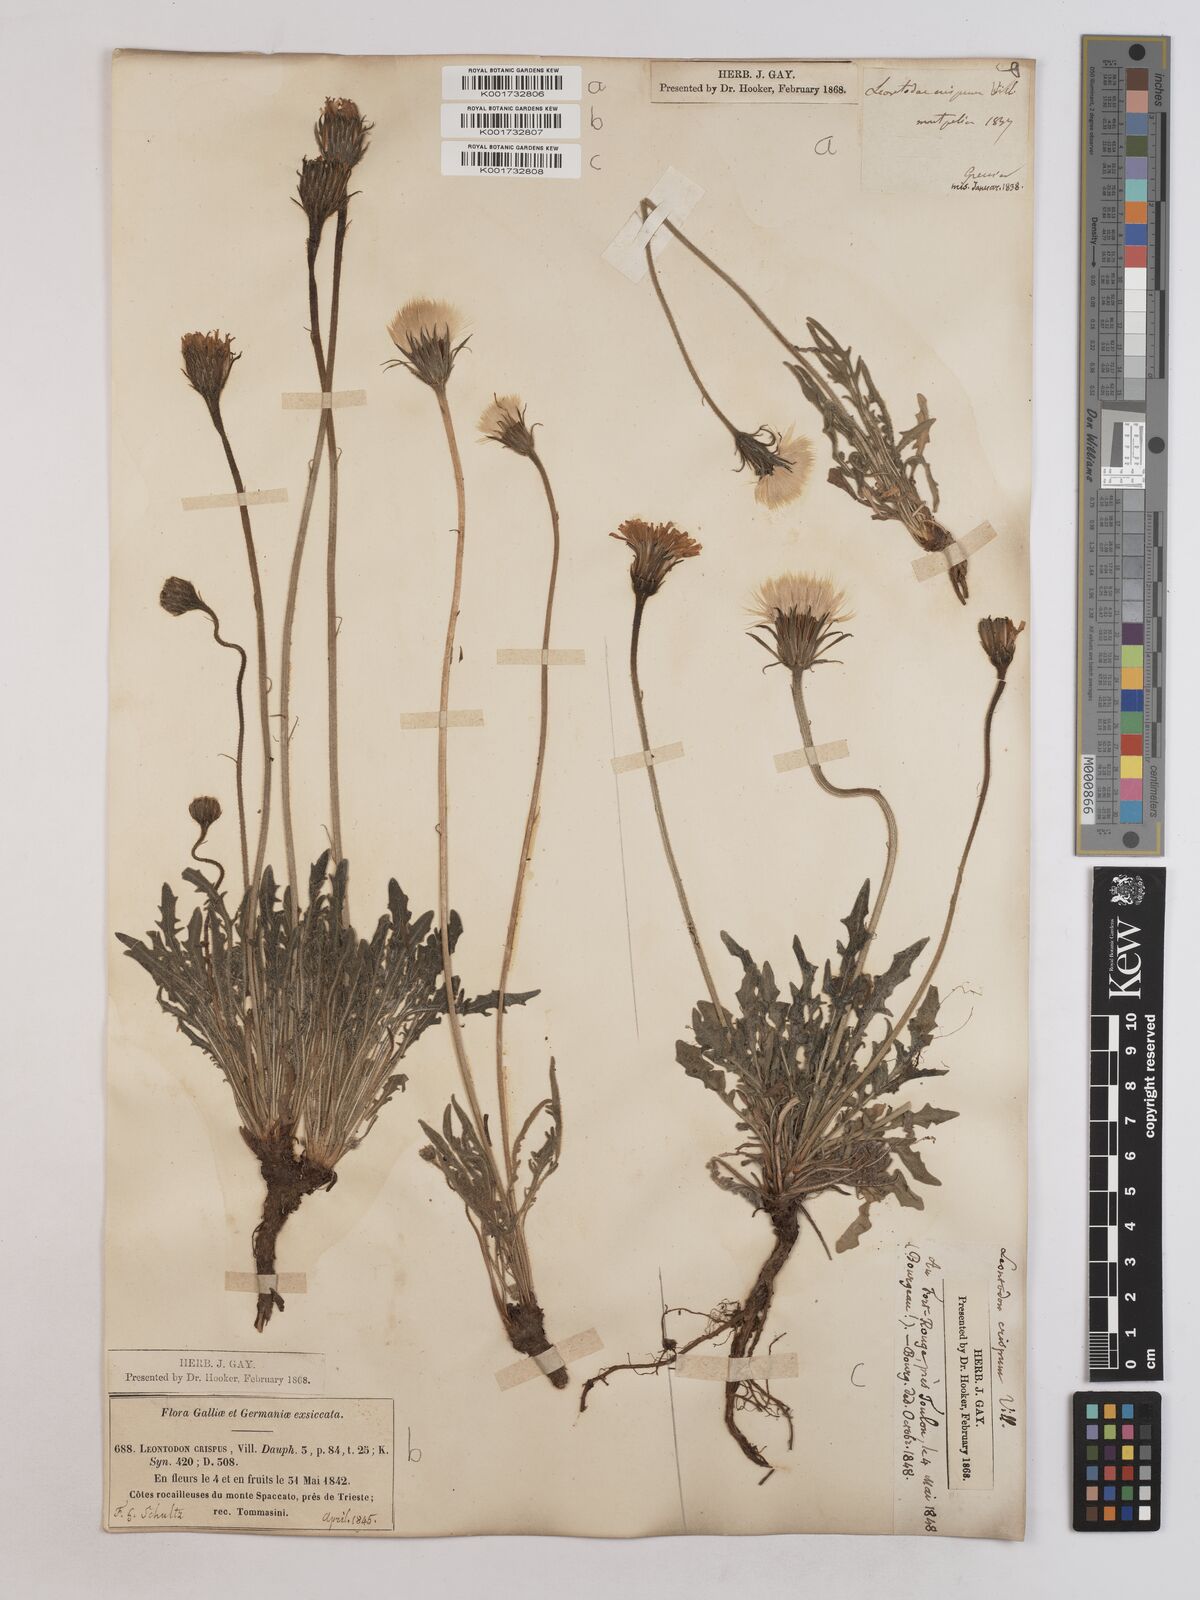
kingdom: Plantae
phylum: Tracheophyta
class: Magnoliopsida
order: Asterales
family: Asteraceae
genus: Leontodon
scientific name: Leontodon crispus
